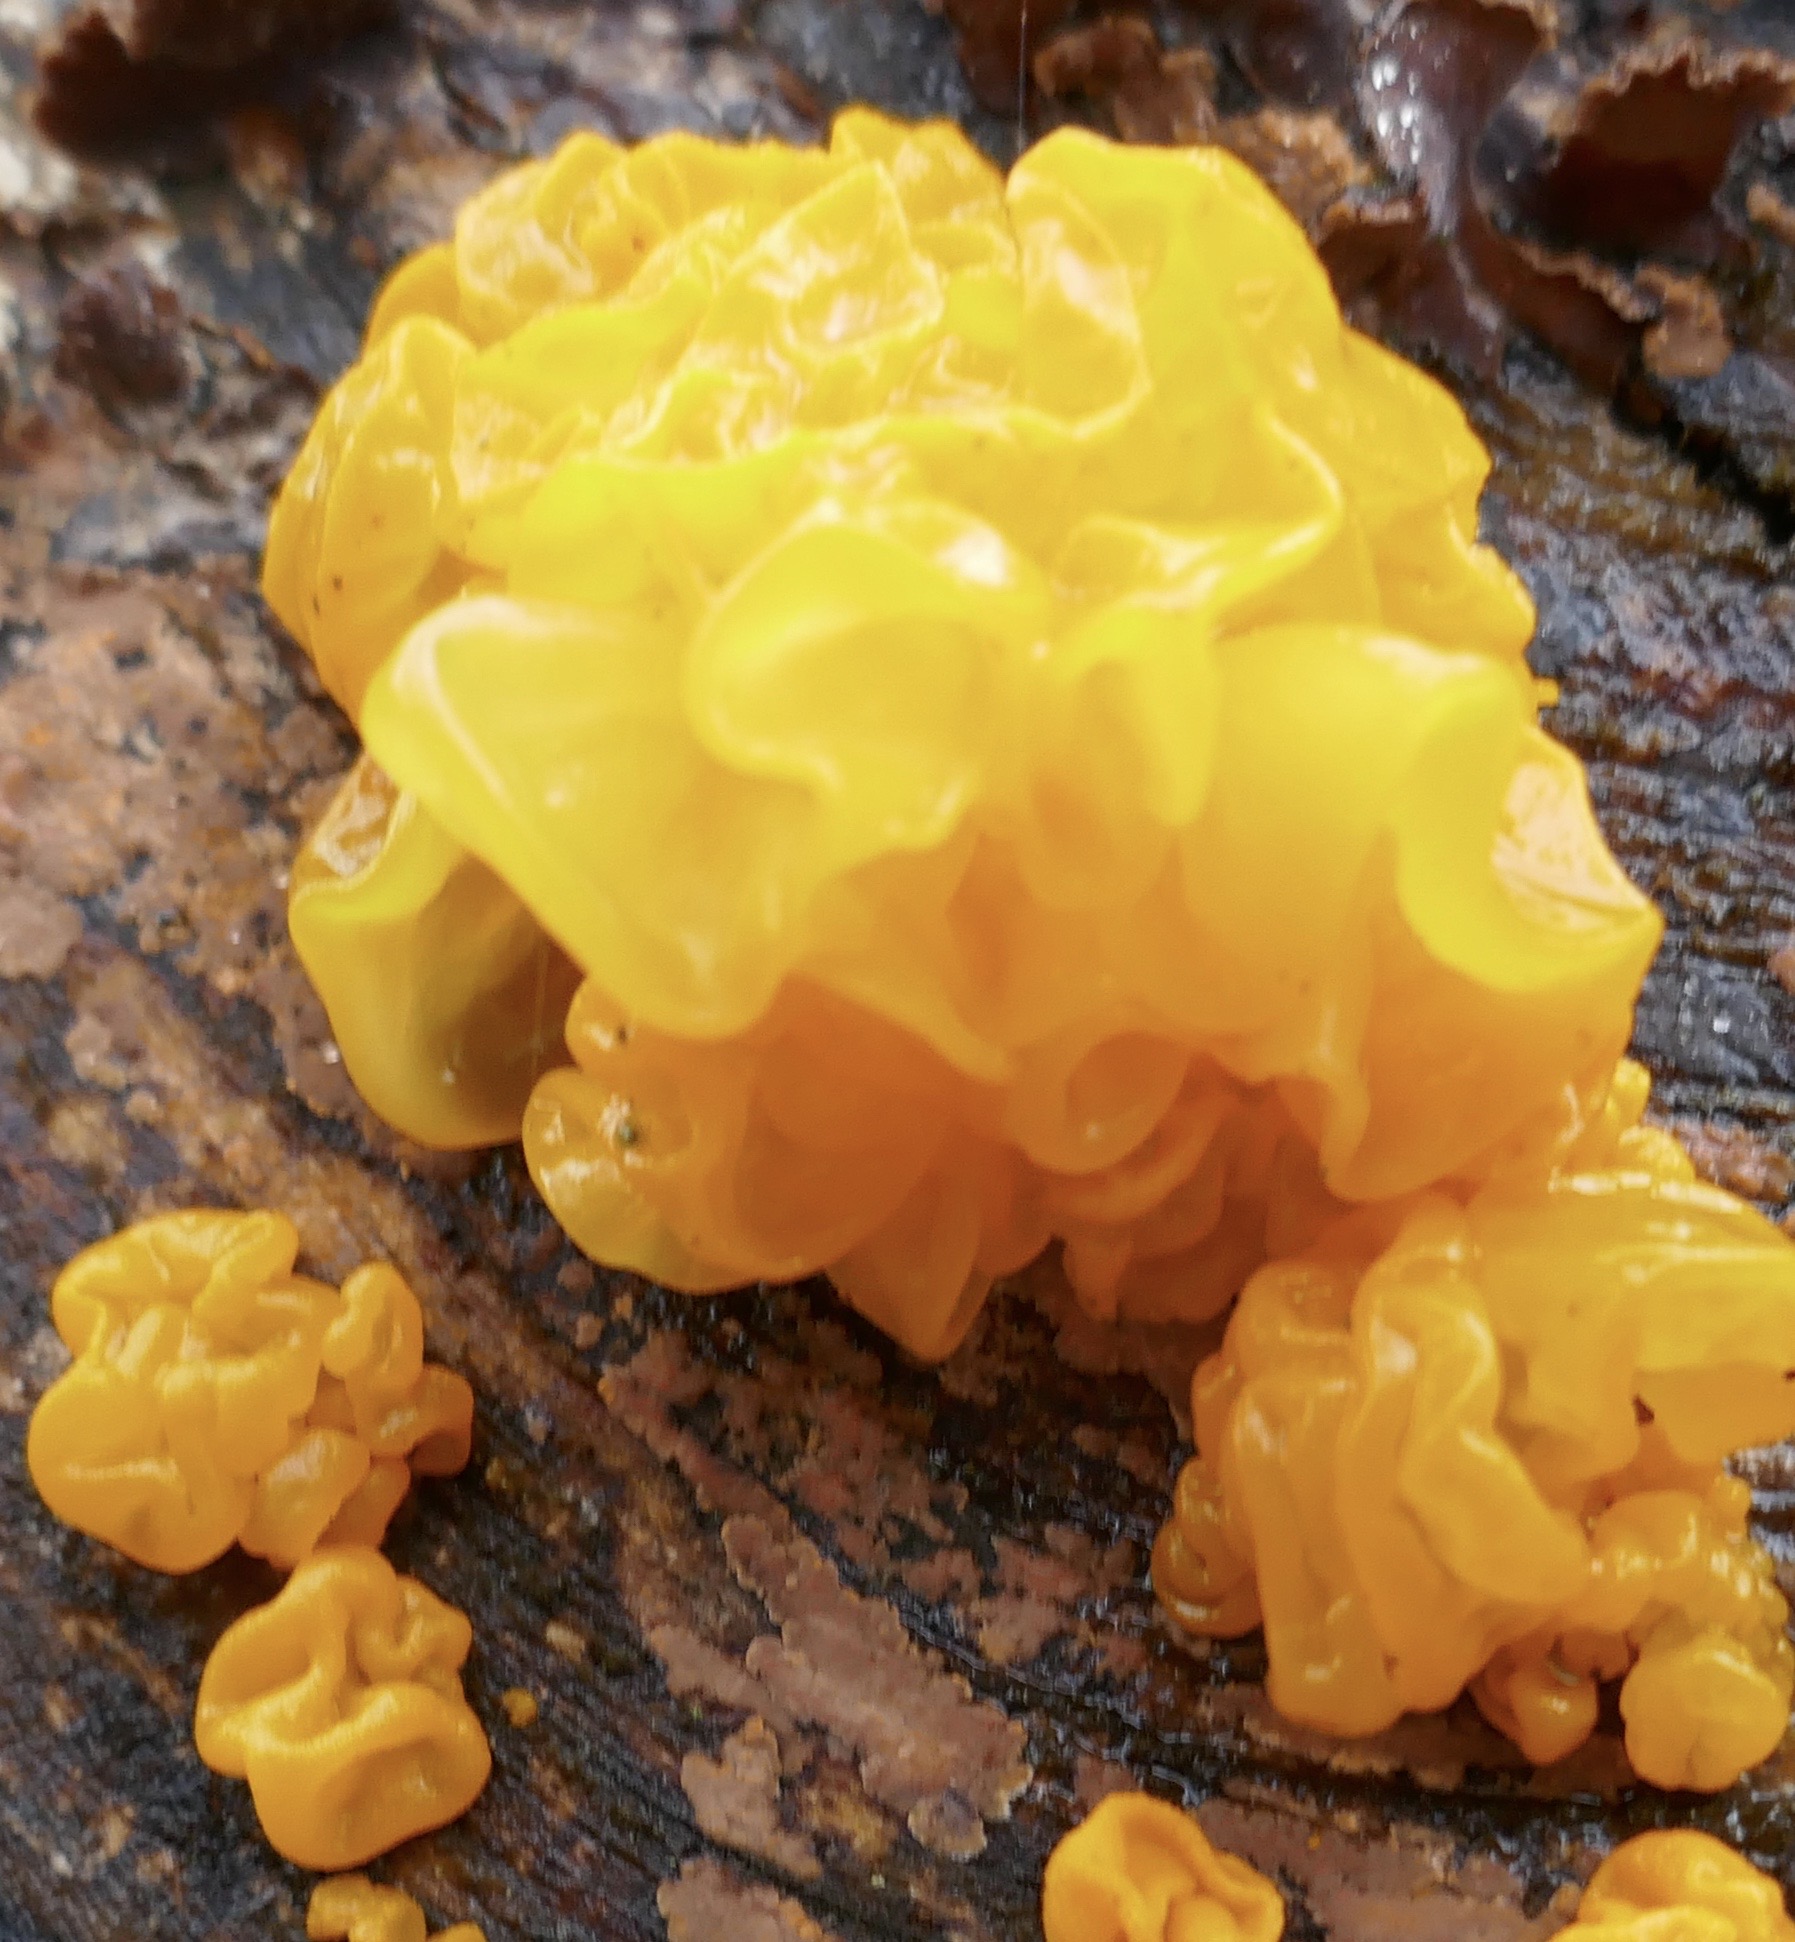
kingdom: Fungi
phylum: Basidiomycota
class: Tremellomycetes
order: Tremellales
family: Tremellaceae
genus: Tremella
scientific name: Tremella mesenterica
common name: gul bævresvamp
